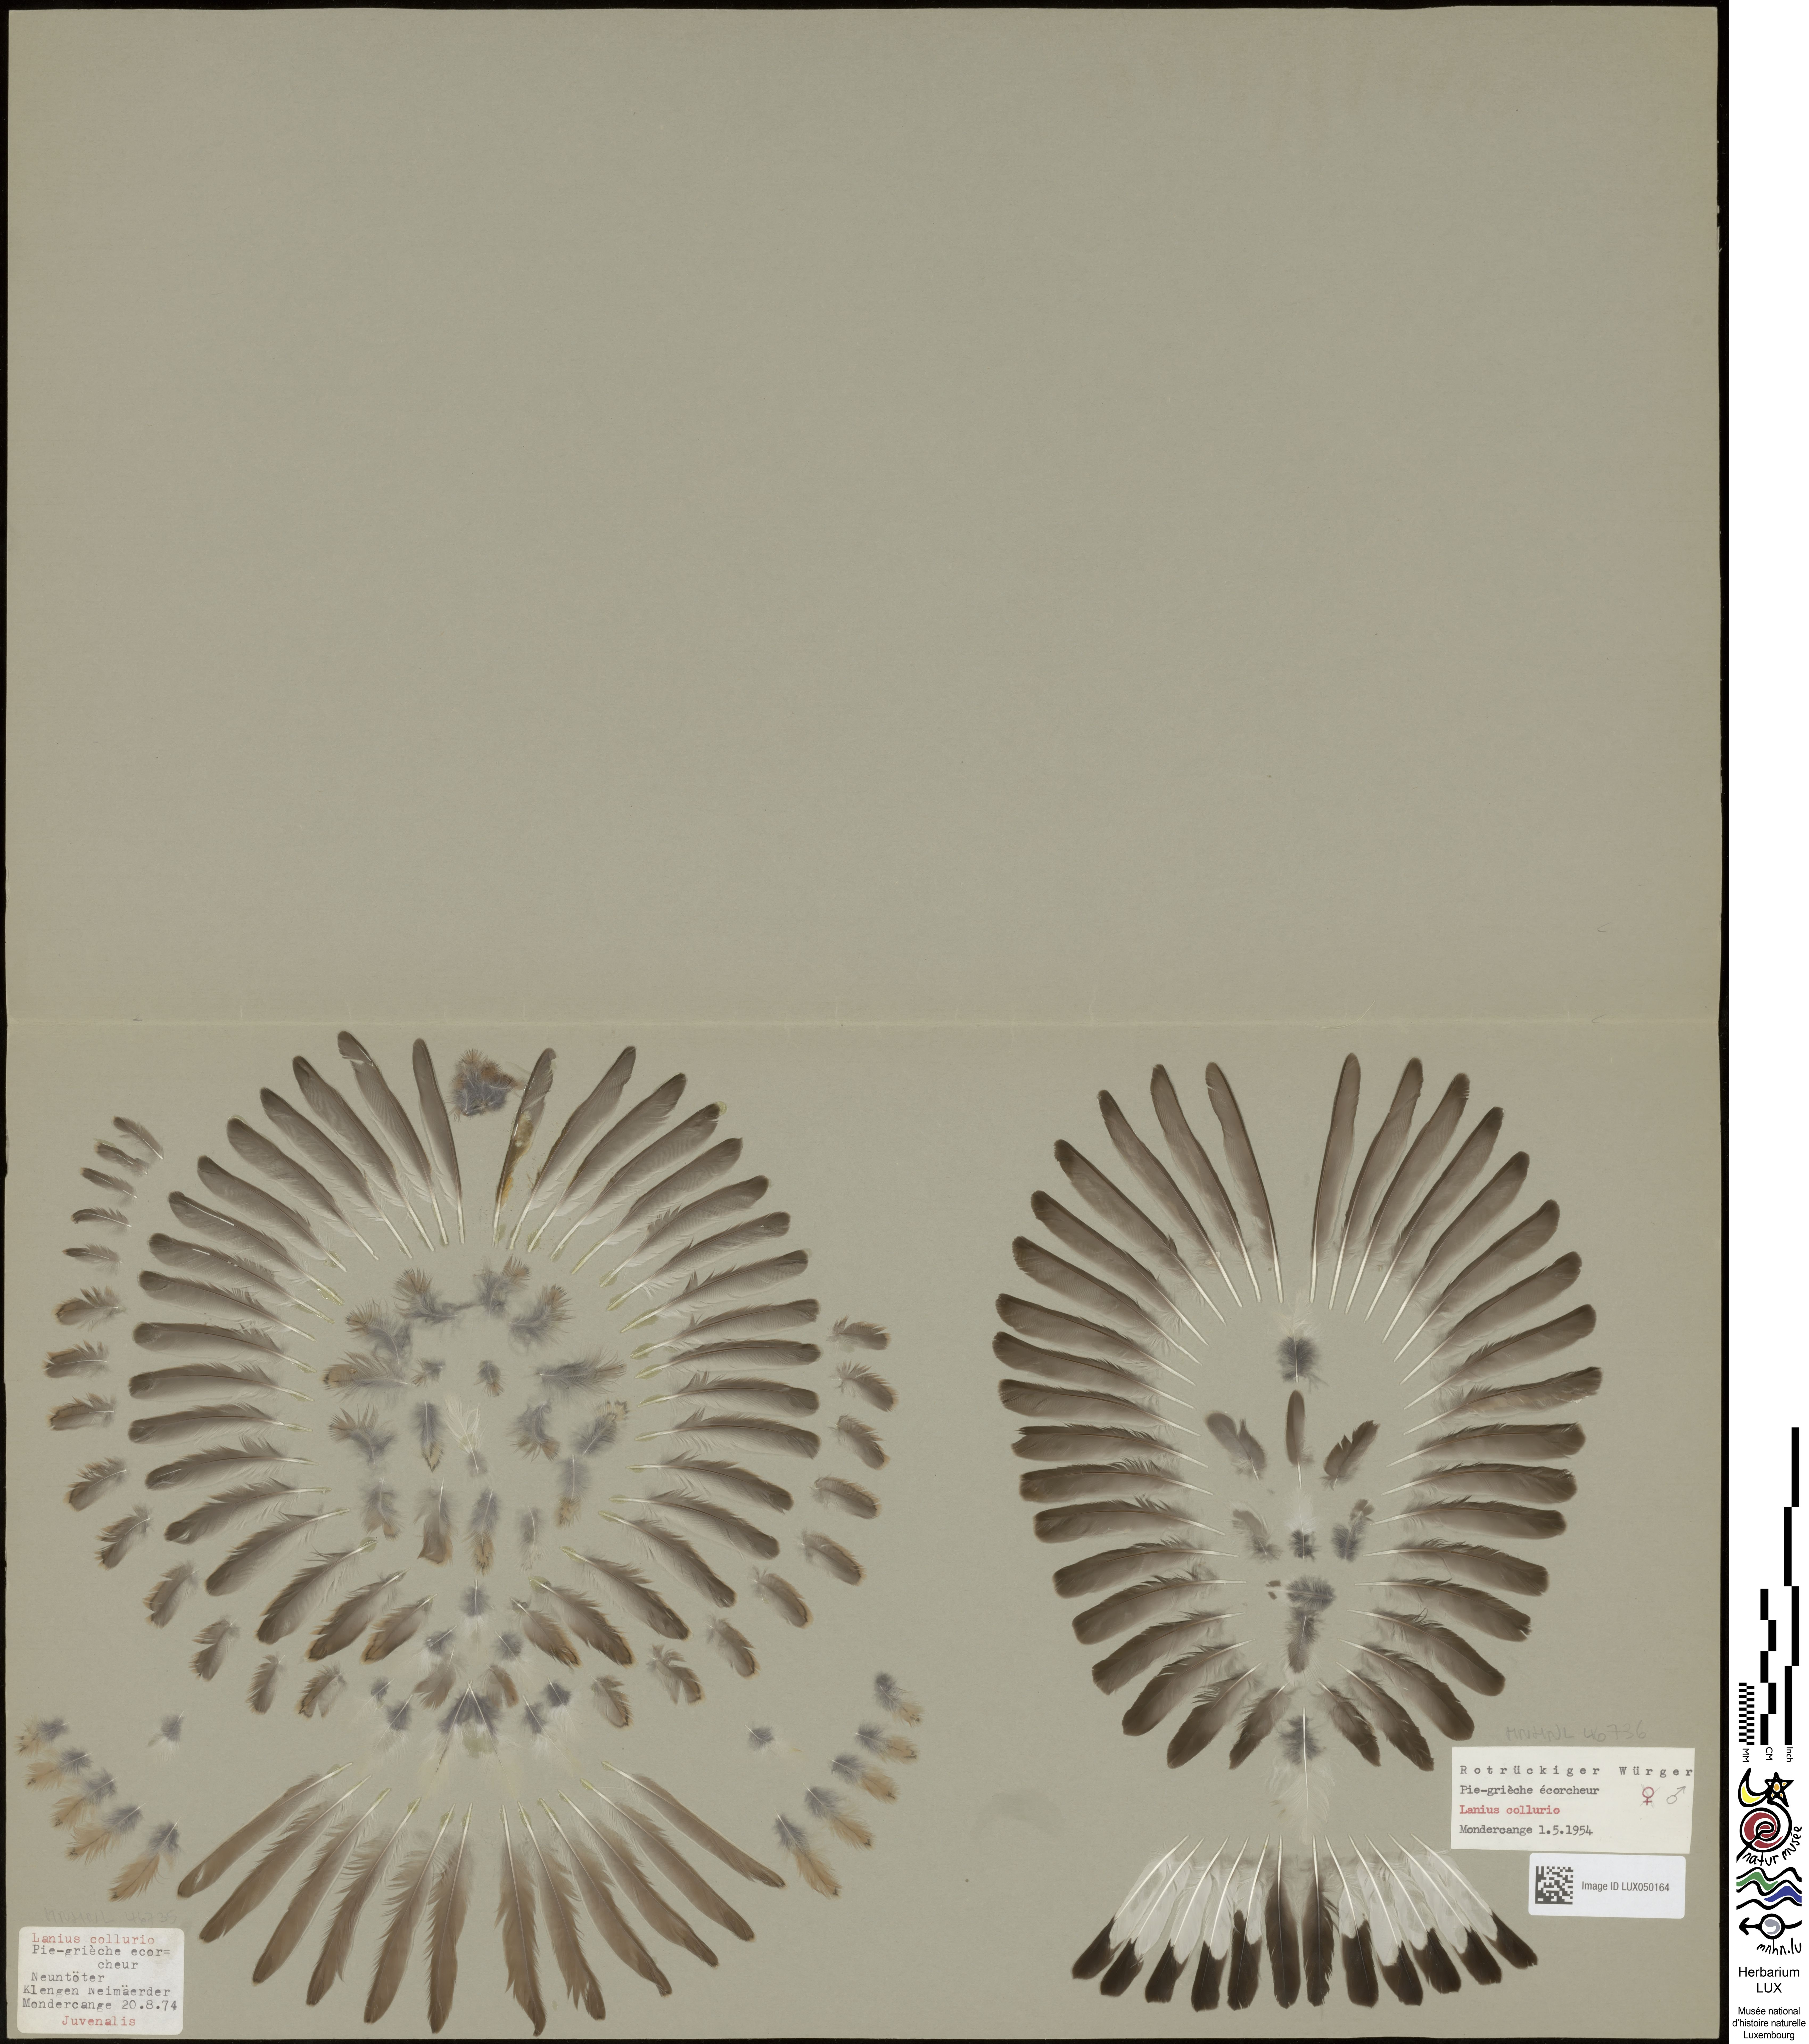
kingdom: Animalia
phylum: Chordata
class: Aves
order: Passeriformes
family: Laniidae
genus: Lanius
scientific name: Lanius collurio
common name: Red-backed shrike
